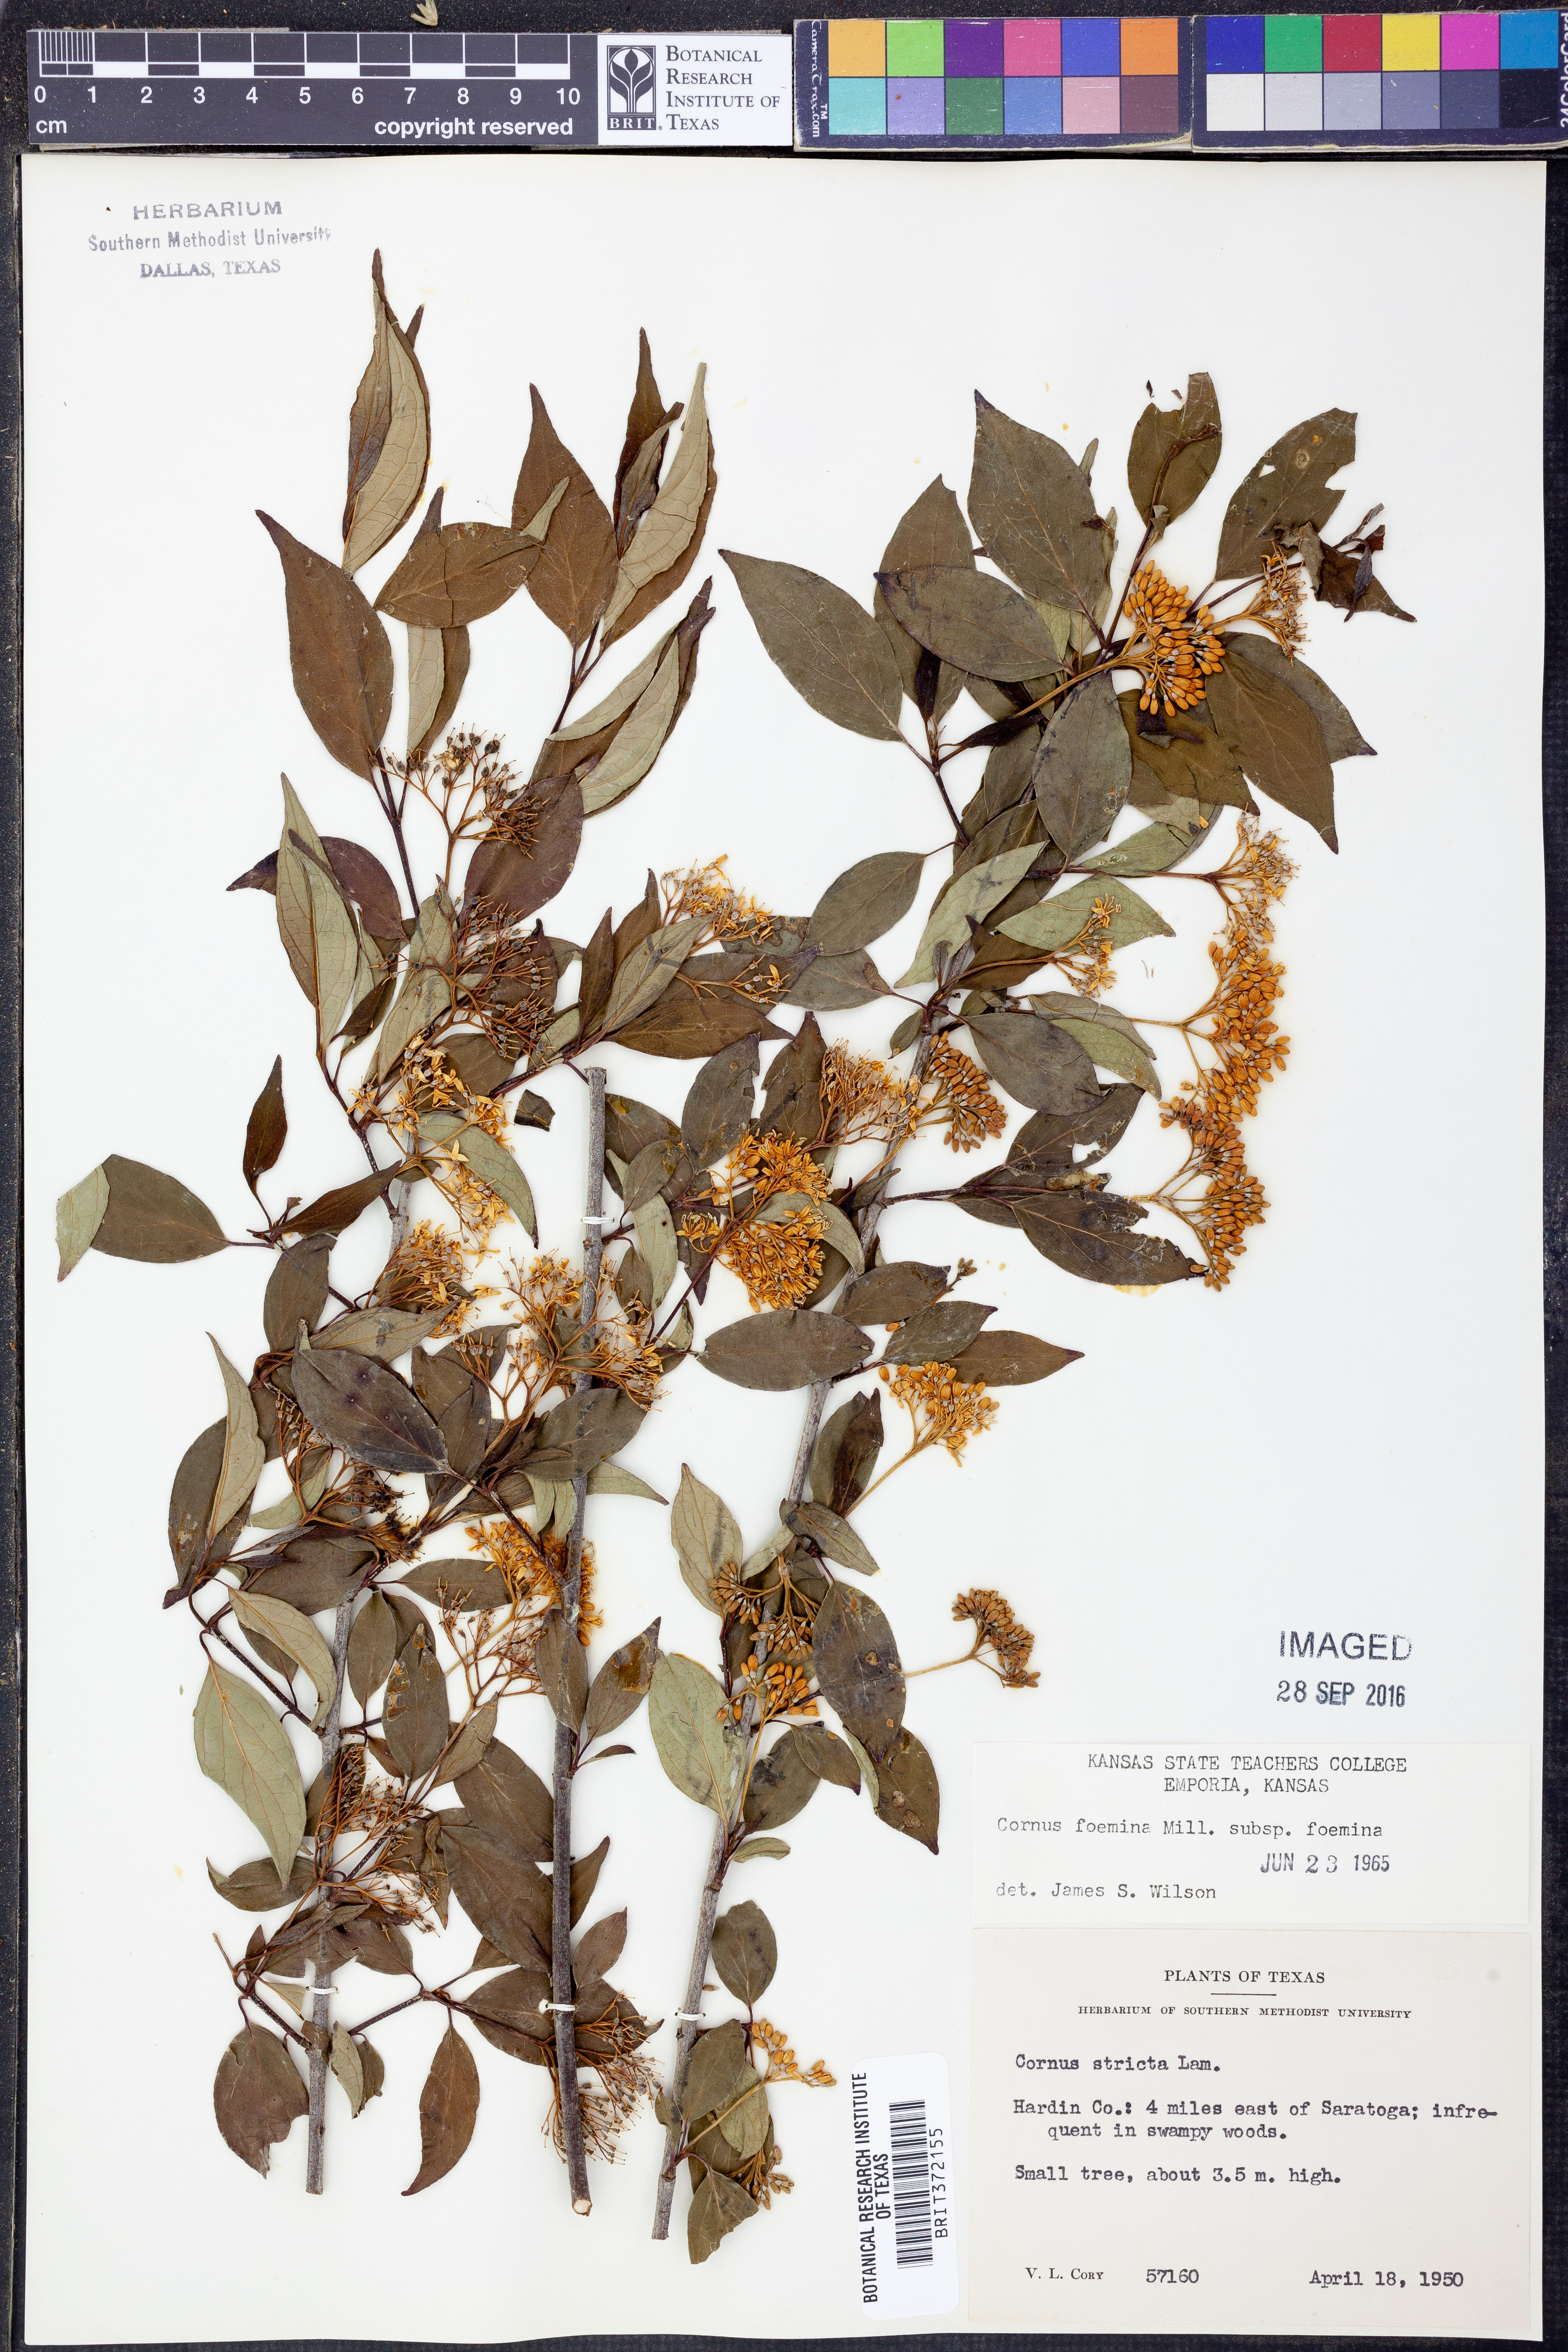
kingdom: Plantae
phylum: Tracheophyta
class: Magnoliopsida
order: Cornales
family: Cornaceae
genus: Cornus
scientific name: Cornus foemina
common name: Swamp dogwood
